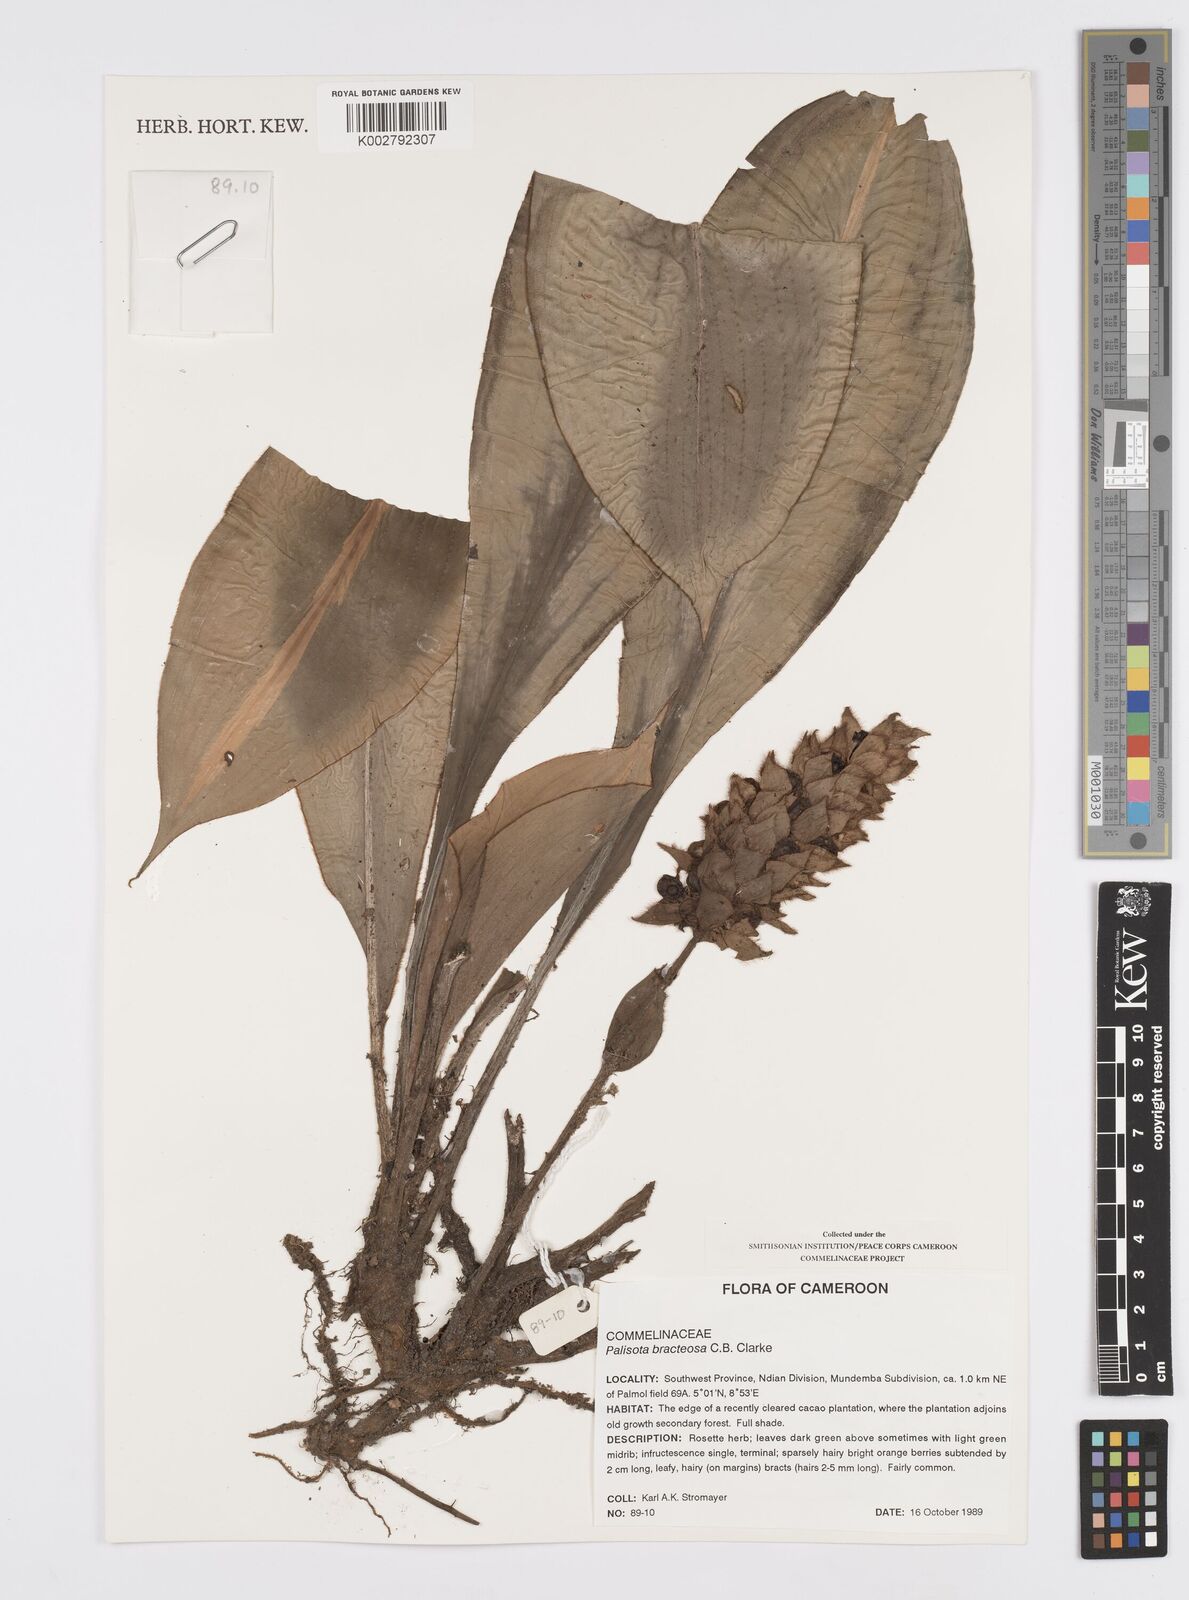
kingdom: Plantae
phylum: Tracheophyta
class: Liliopsida
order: Commelinales
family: Commelinaceae
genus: Palisota
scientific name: Palisota bracteosa
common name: Palisota
